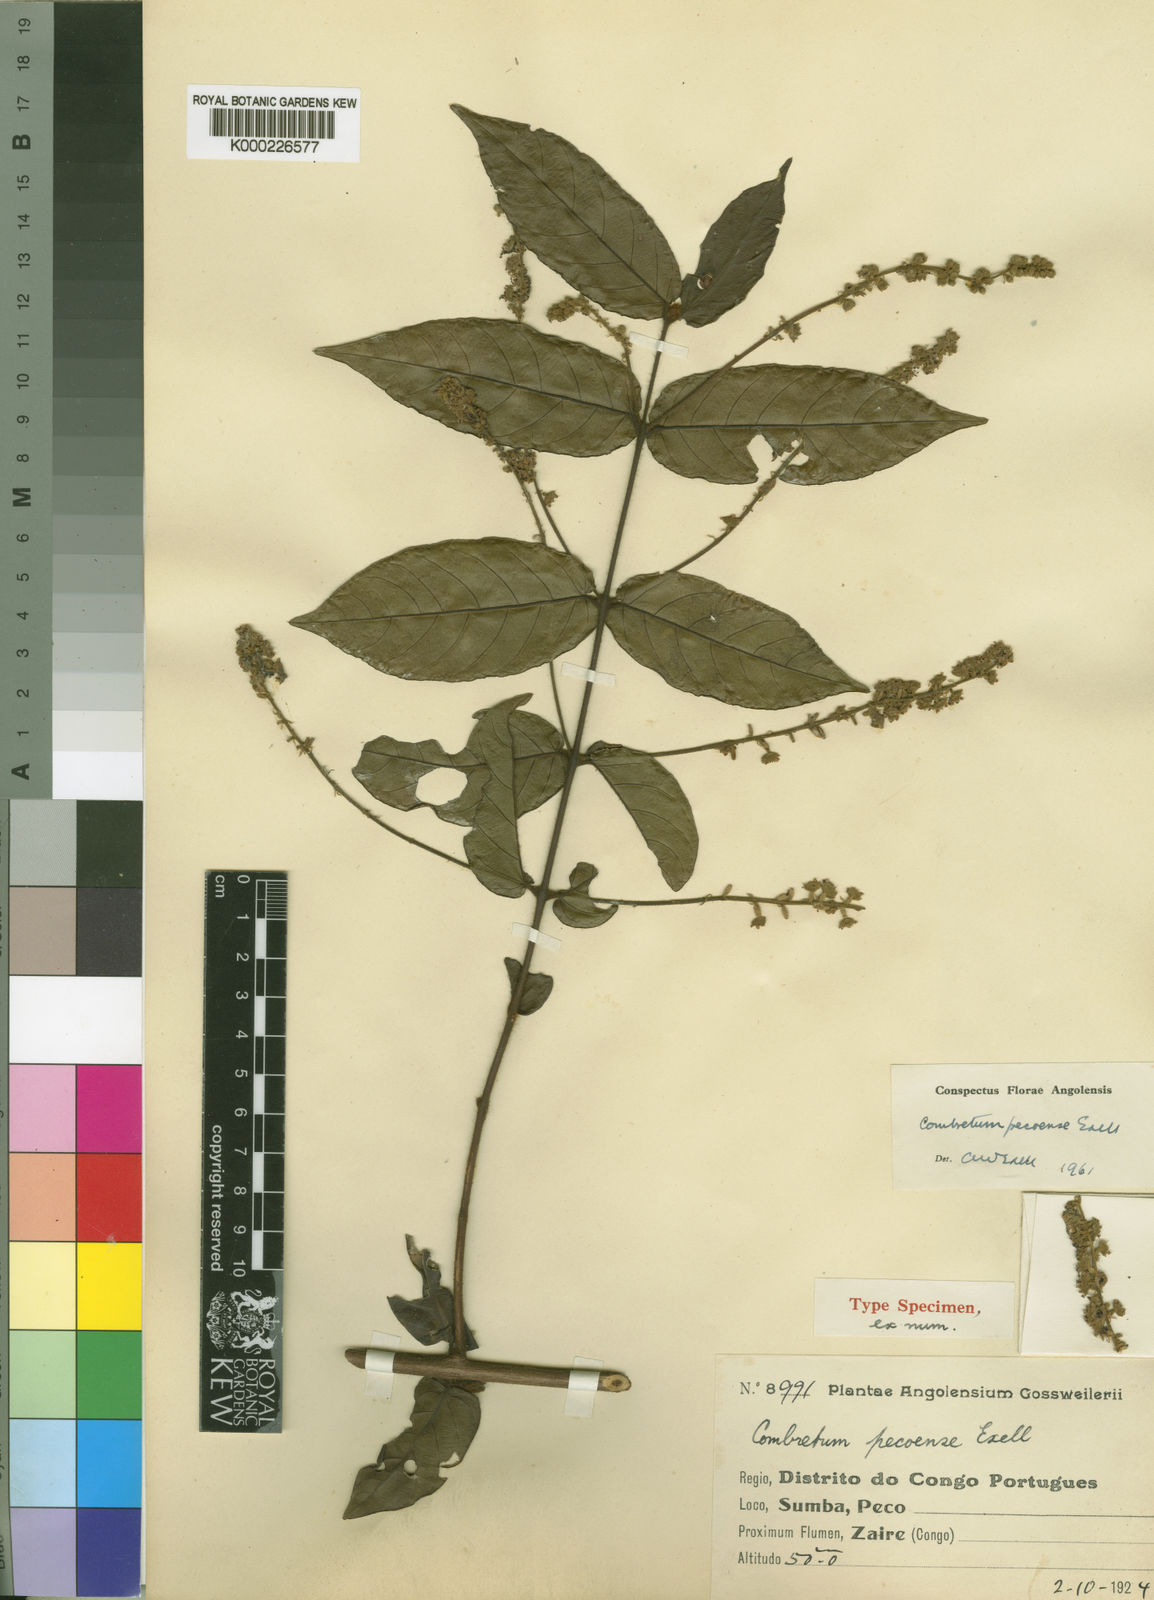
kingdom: Plantae
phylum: Tracheophyta
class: Magnoliopsida
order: Myrtales
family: Combretaceae
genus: Combretum
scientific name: Combretum pecoense
